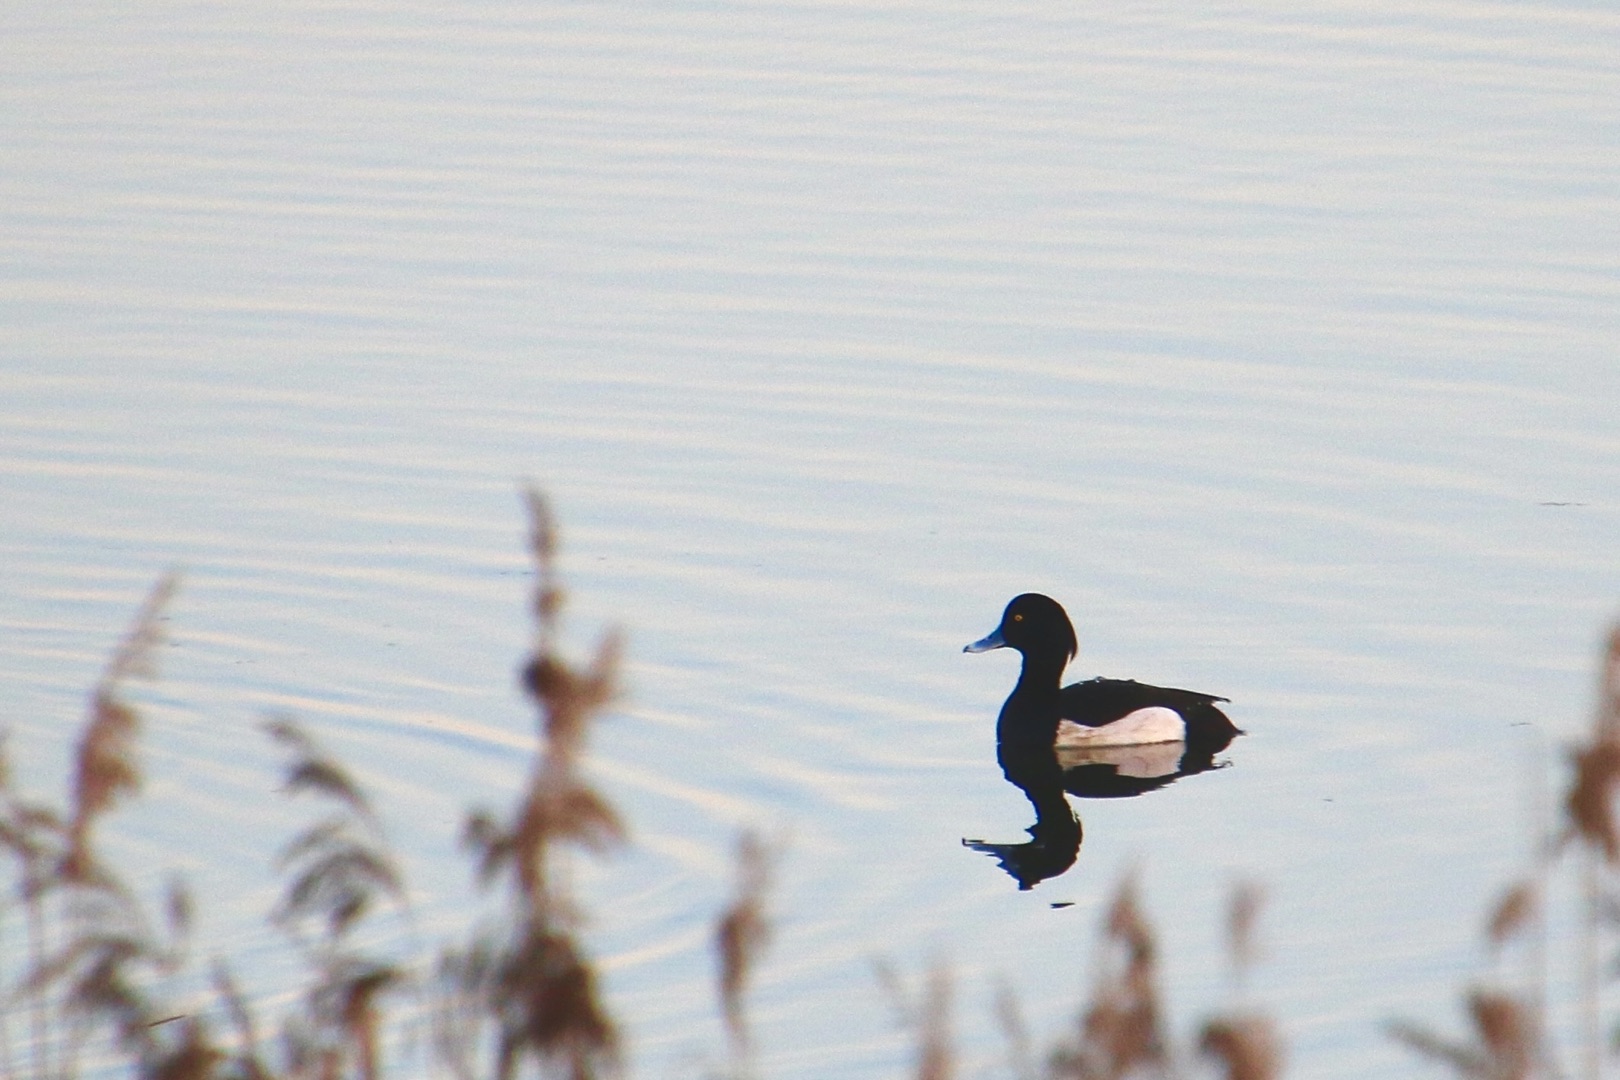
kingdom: Animalia
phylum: Chordata
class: Aves
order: Anseriformes
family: Anatidae
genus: Aythya
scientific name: Aythya fuligula
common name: Troldand
